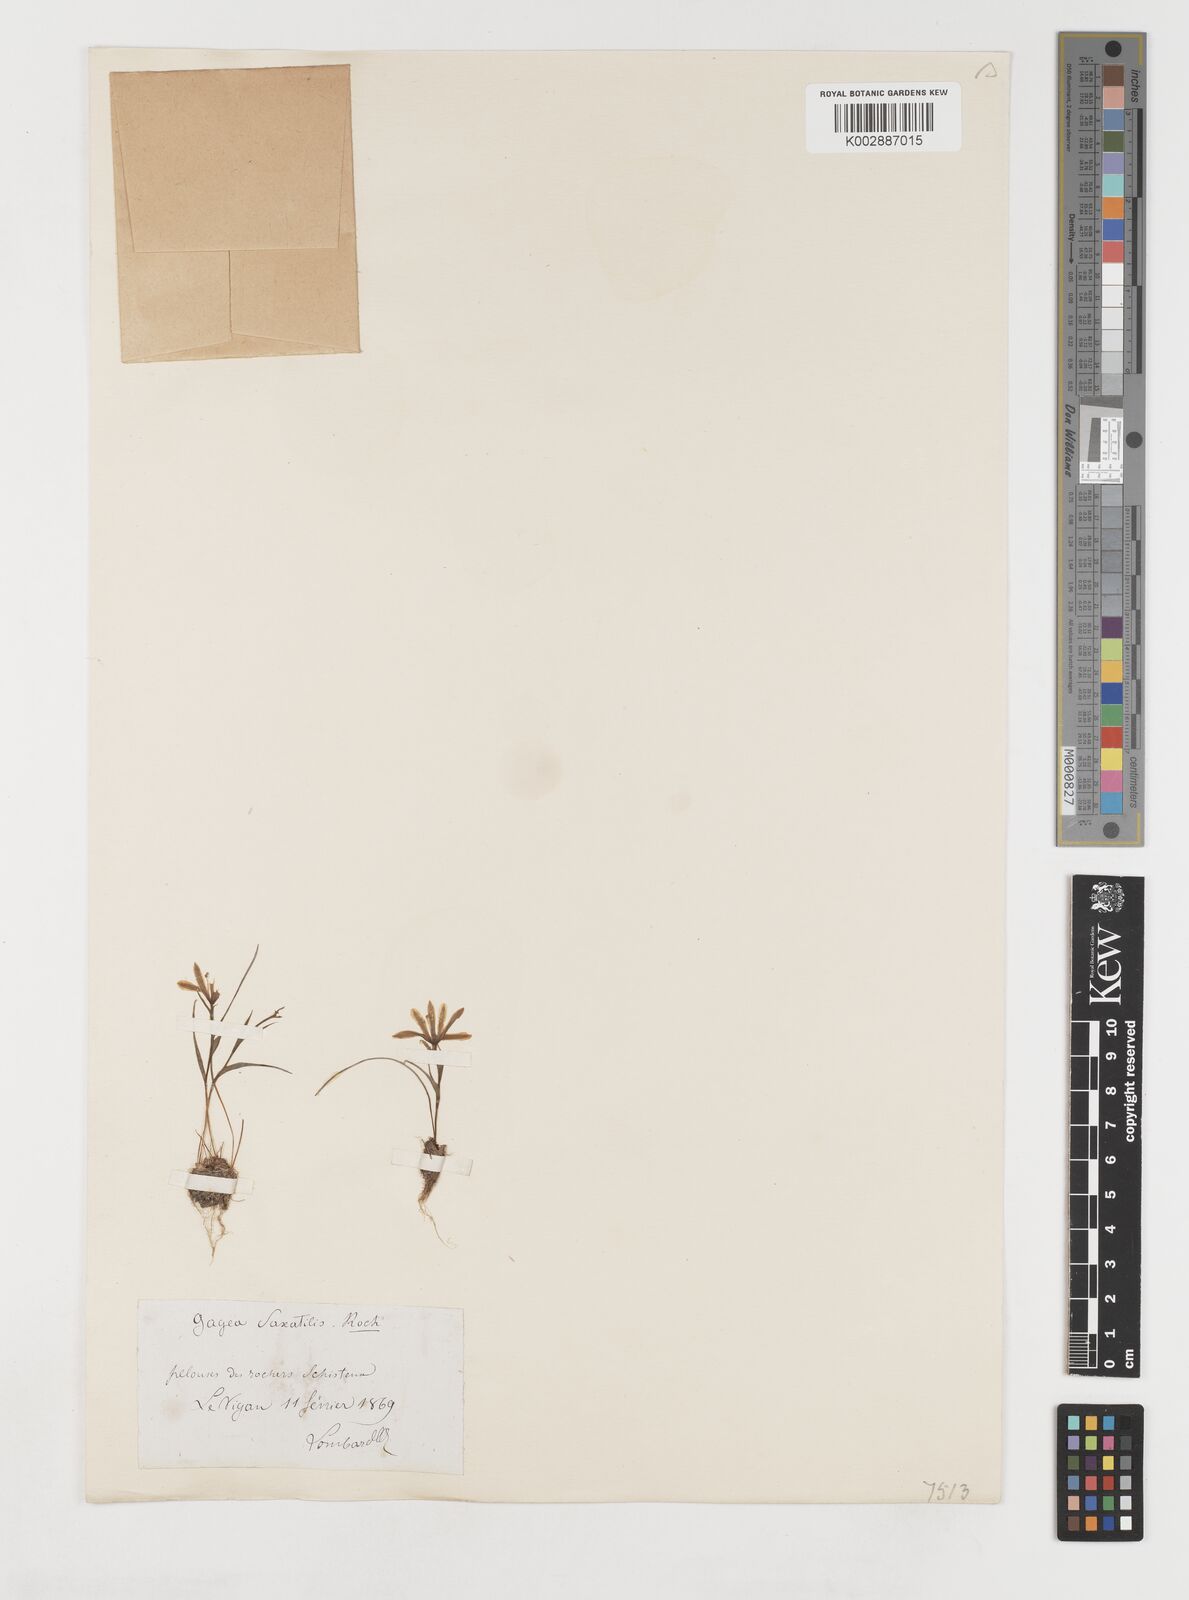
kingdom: Plantae
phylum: Tracheophyta
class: Liliopsida
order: Liliales
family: Liliaceae
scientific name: Liliaceae
